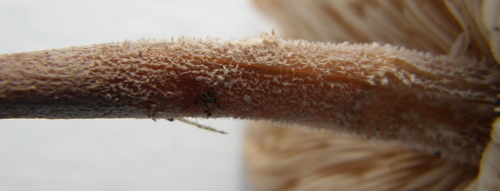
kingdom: Fungi
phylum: Basidiomycota
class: Agaricomycetes
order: Agaricales
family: Omphalotaceae
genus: Collybiopsis
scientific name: Collybiopsis confluens
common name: knippe-fladhat
